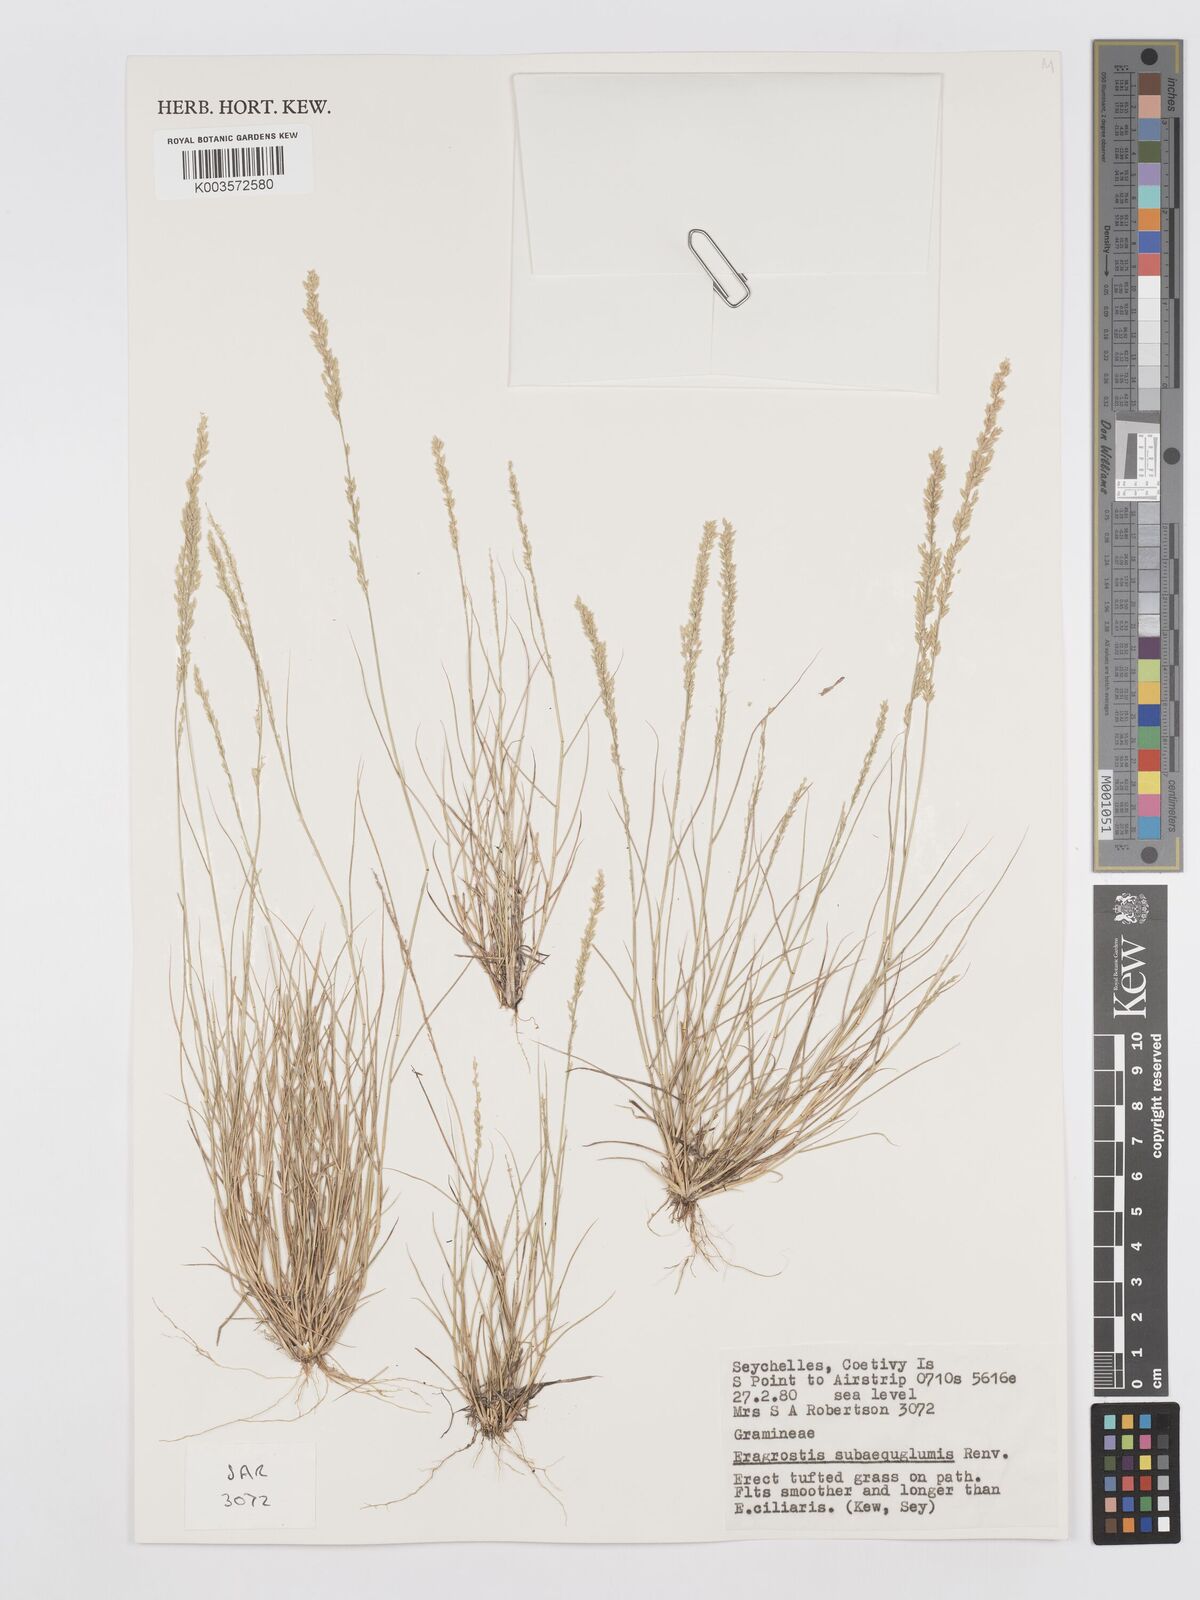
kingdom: Plantae
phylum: Tracheophyta
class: Liliopsida
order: Poales
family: Poaceae
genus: Eragrostis
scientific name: Eragrostis subaequiglumis
